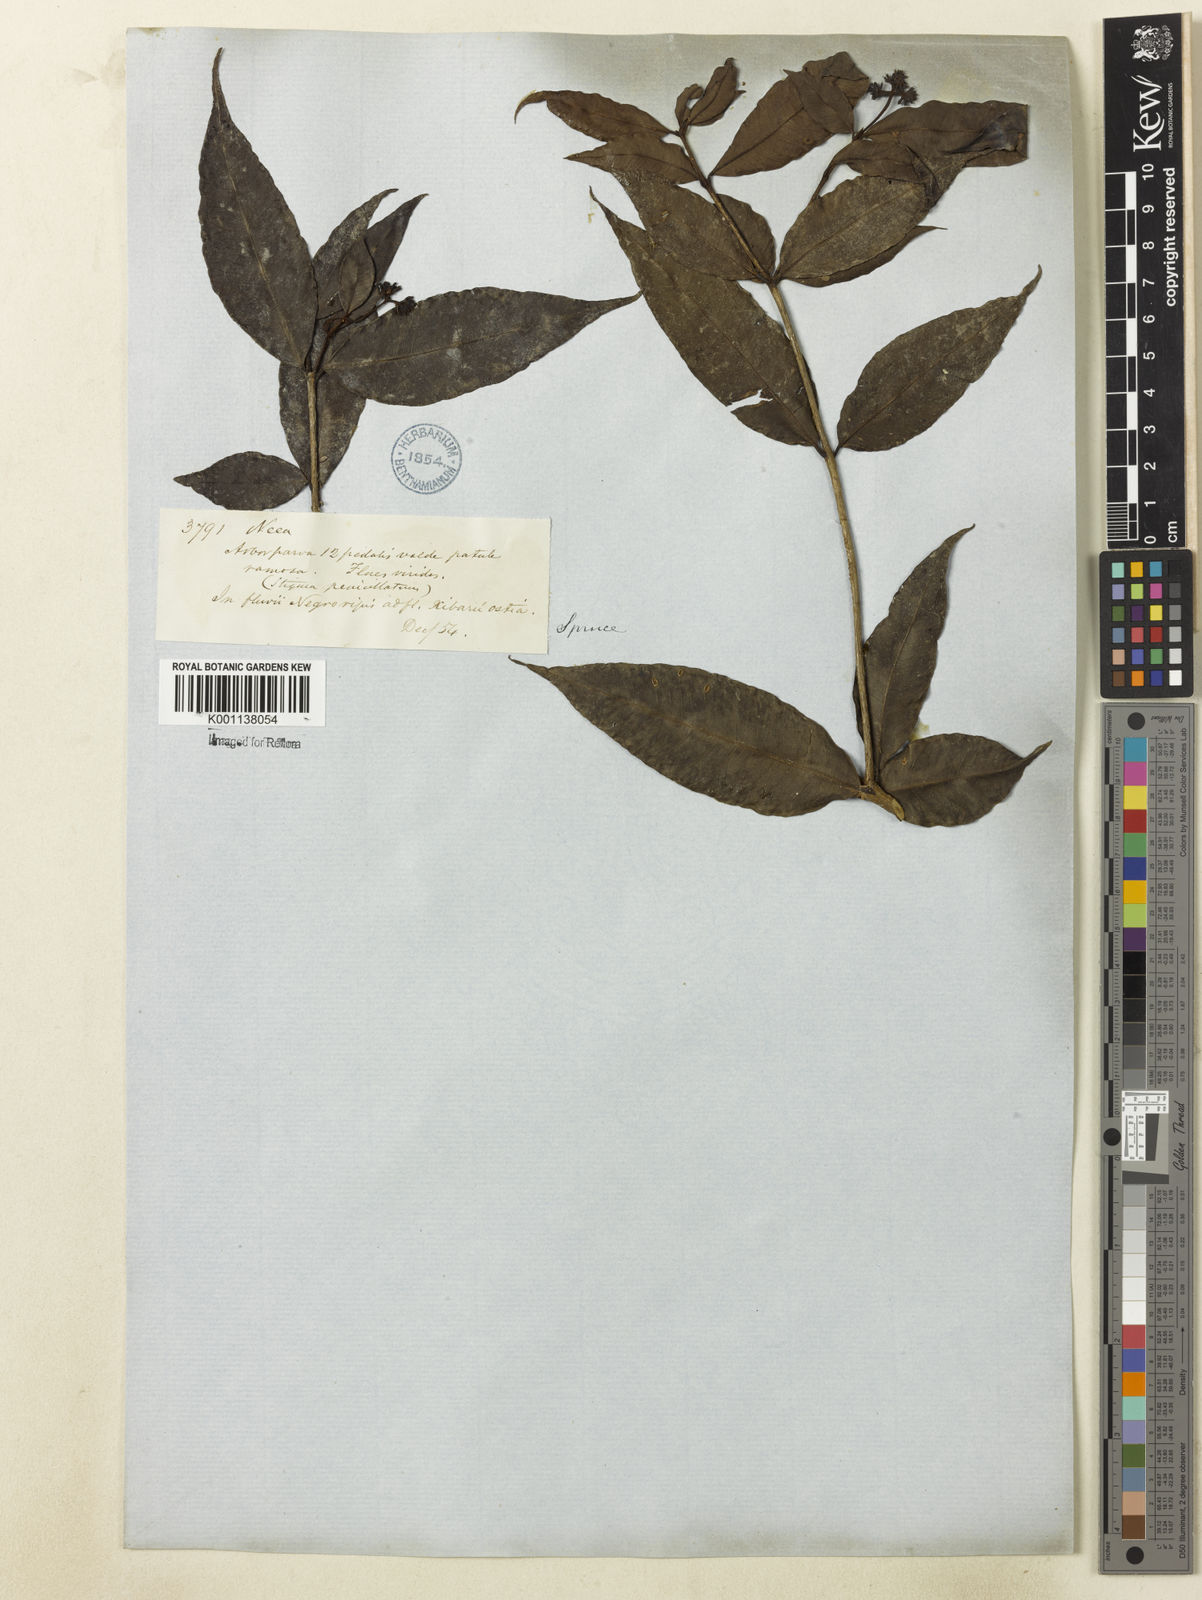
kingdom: Plantae
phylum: Tracheophyta
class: Magnoliopsida
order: Caryophyllales
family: Nyctaginaceae
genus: Neea
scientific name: Neea
